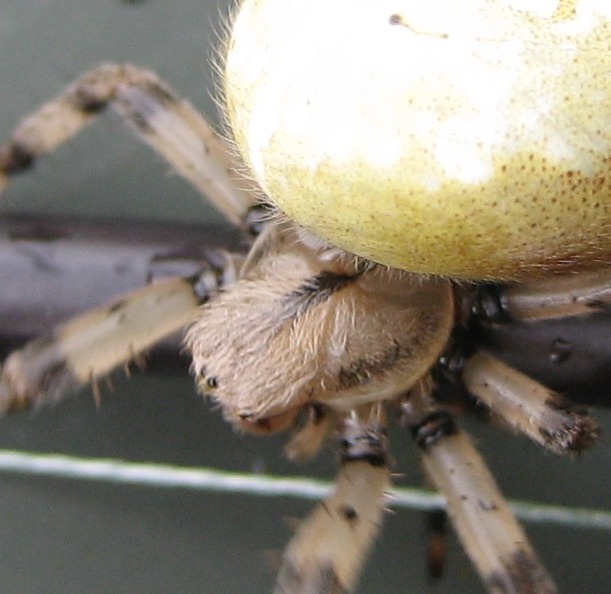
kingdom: Animalia
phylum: Arthropoda
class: Arachnida
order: Araneae
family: Araneidae
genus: Araneus
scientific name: Araneus quadratus
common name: Kvadratedderkop
